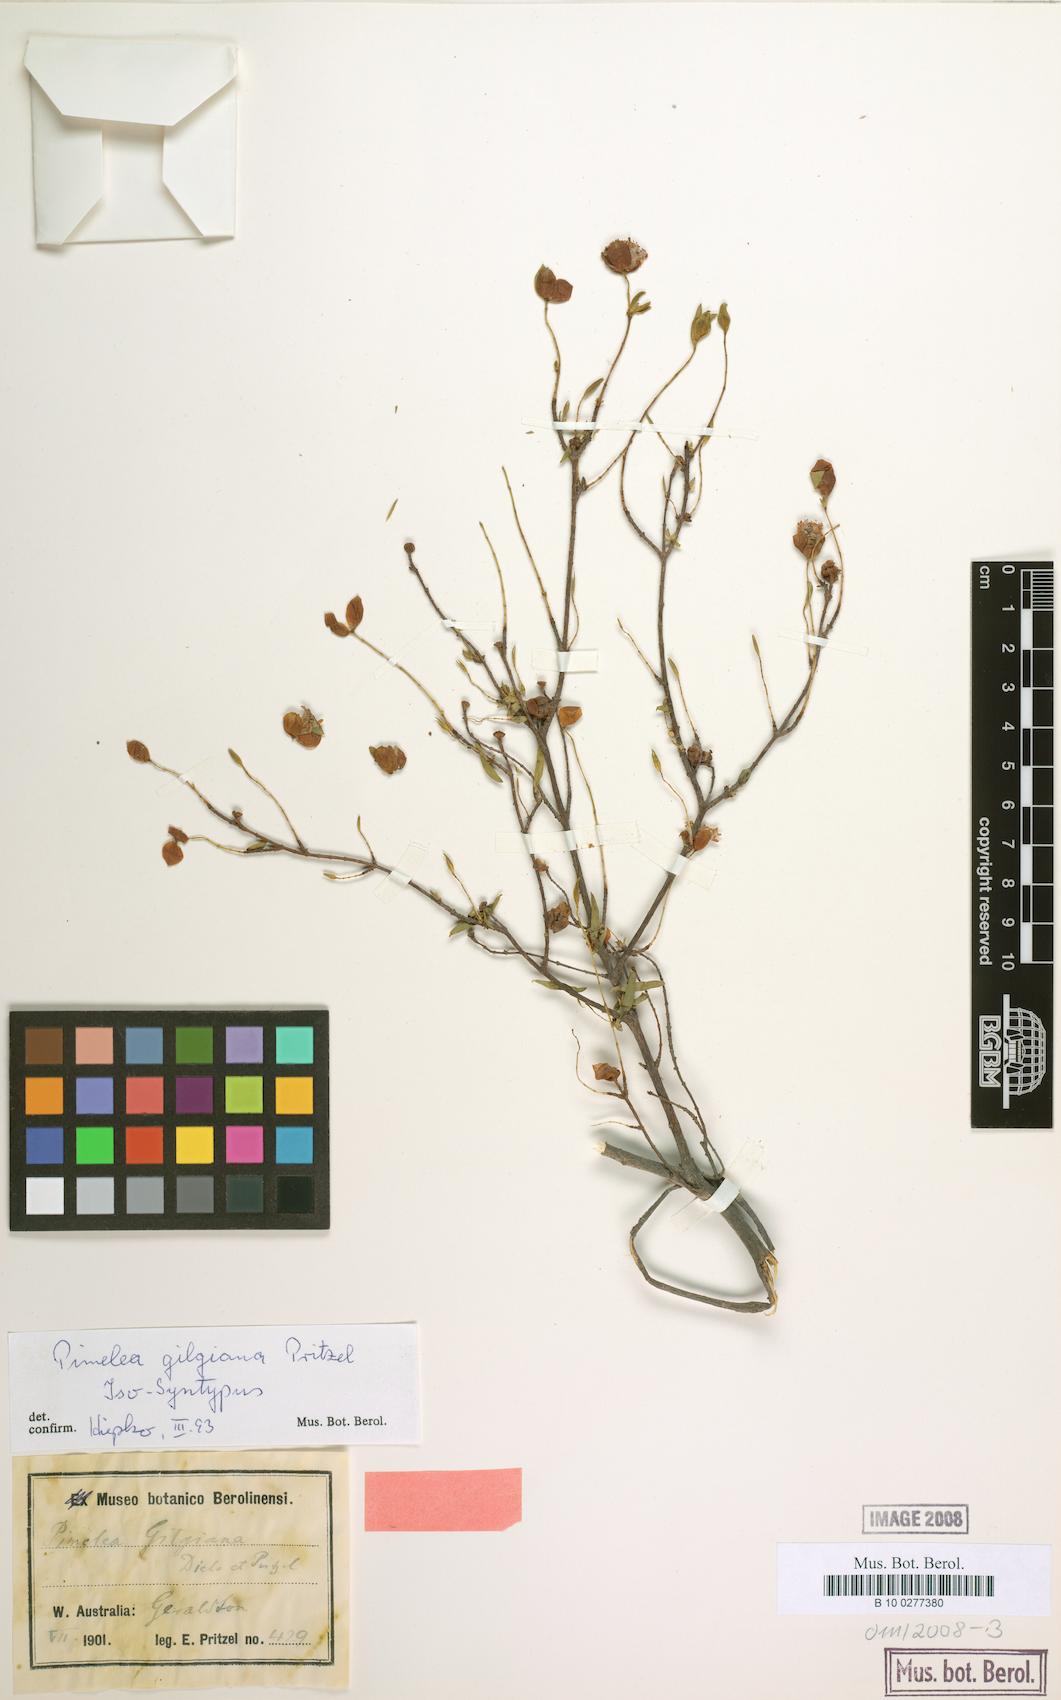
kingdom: Plantae
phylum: Tracheophyta
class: Magnoliopsida
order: Malvales
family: Thymelaeaceae
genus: Pimelea
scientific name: Pimelea gilgiana
